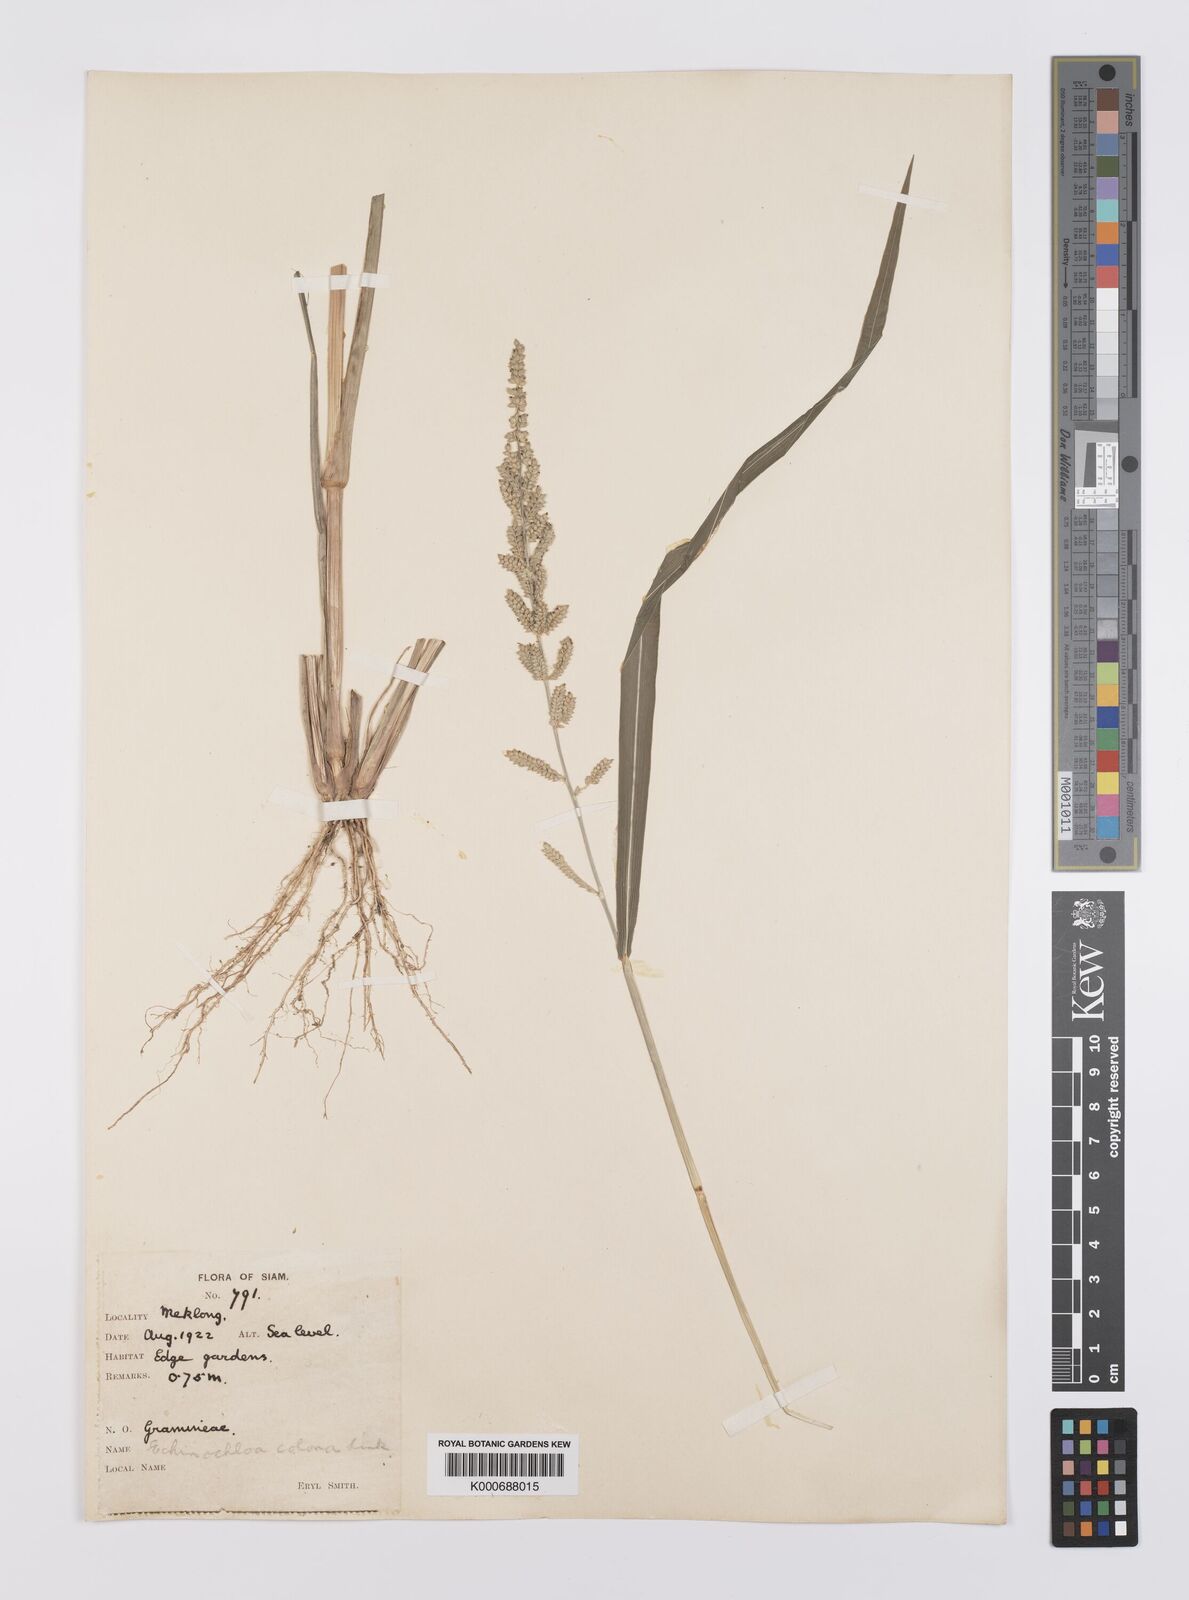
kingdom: Plantae
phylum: Tracheophyta
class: Liliopsida
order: Poales
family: Poaceae
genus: Echinochloa
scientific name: Echinochloa colonum
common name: Jungle rice
